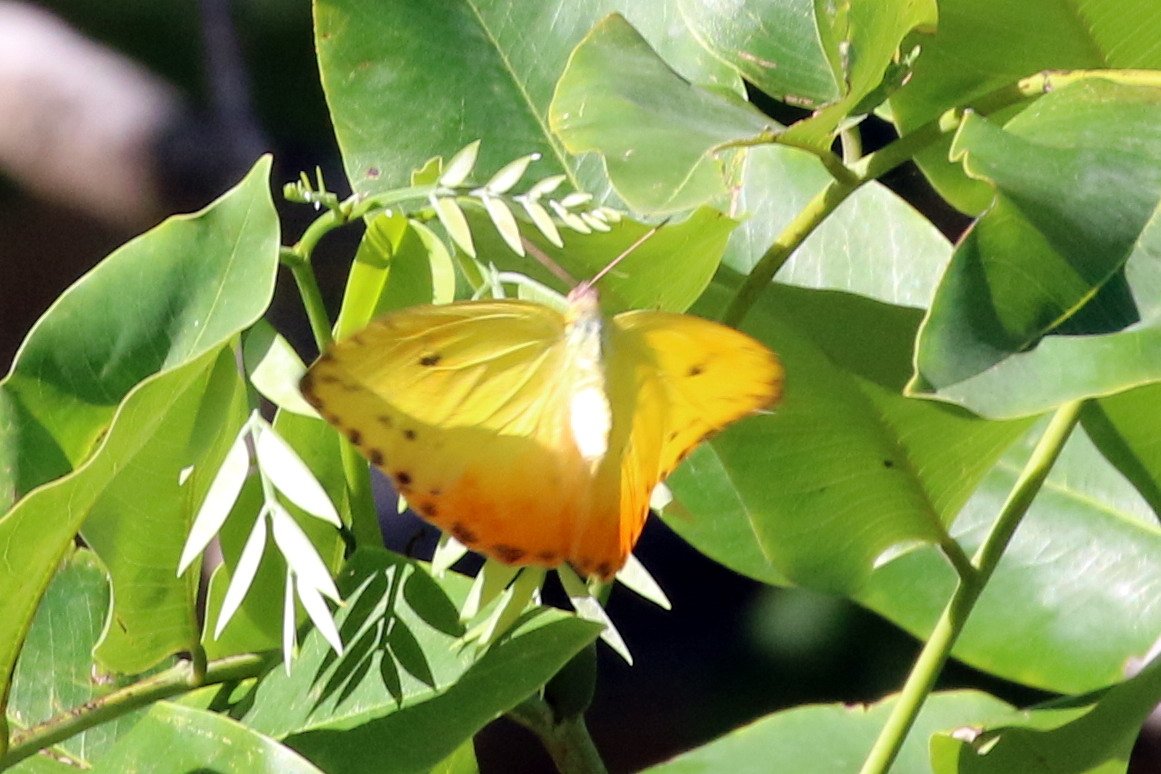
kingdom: Animalia
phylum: Arthropoda
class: Insecta
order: Lepidoptera
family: Pieridae
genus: Phoebis
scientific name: Phoebis philea
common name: Orange-barred Sulphur
